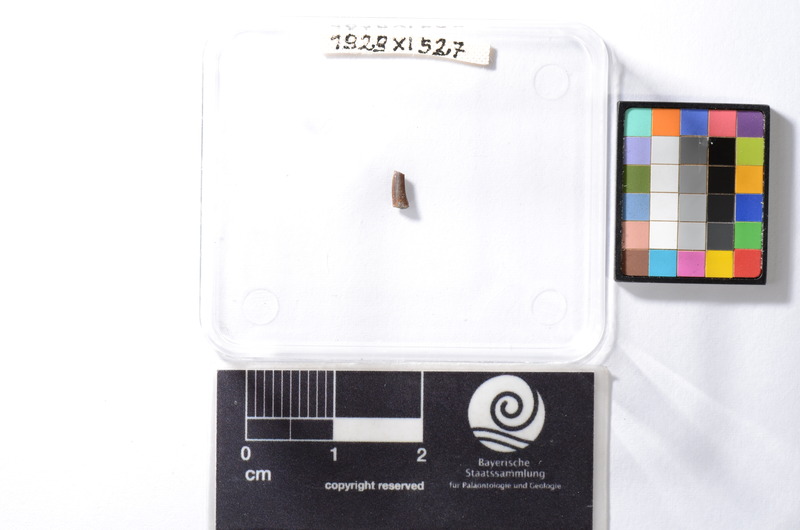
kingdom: Animalia
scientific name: Animalia
